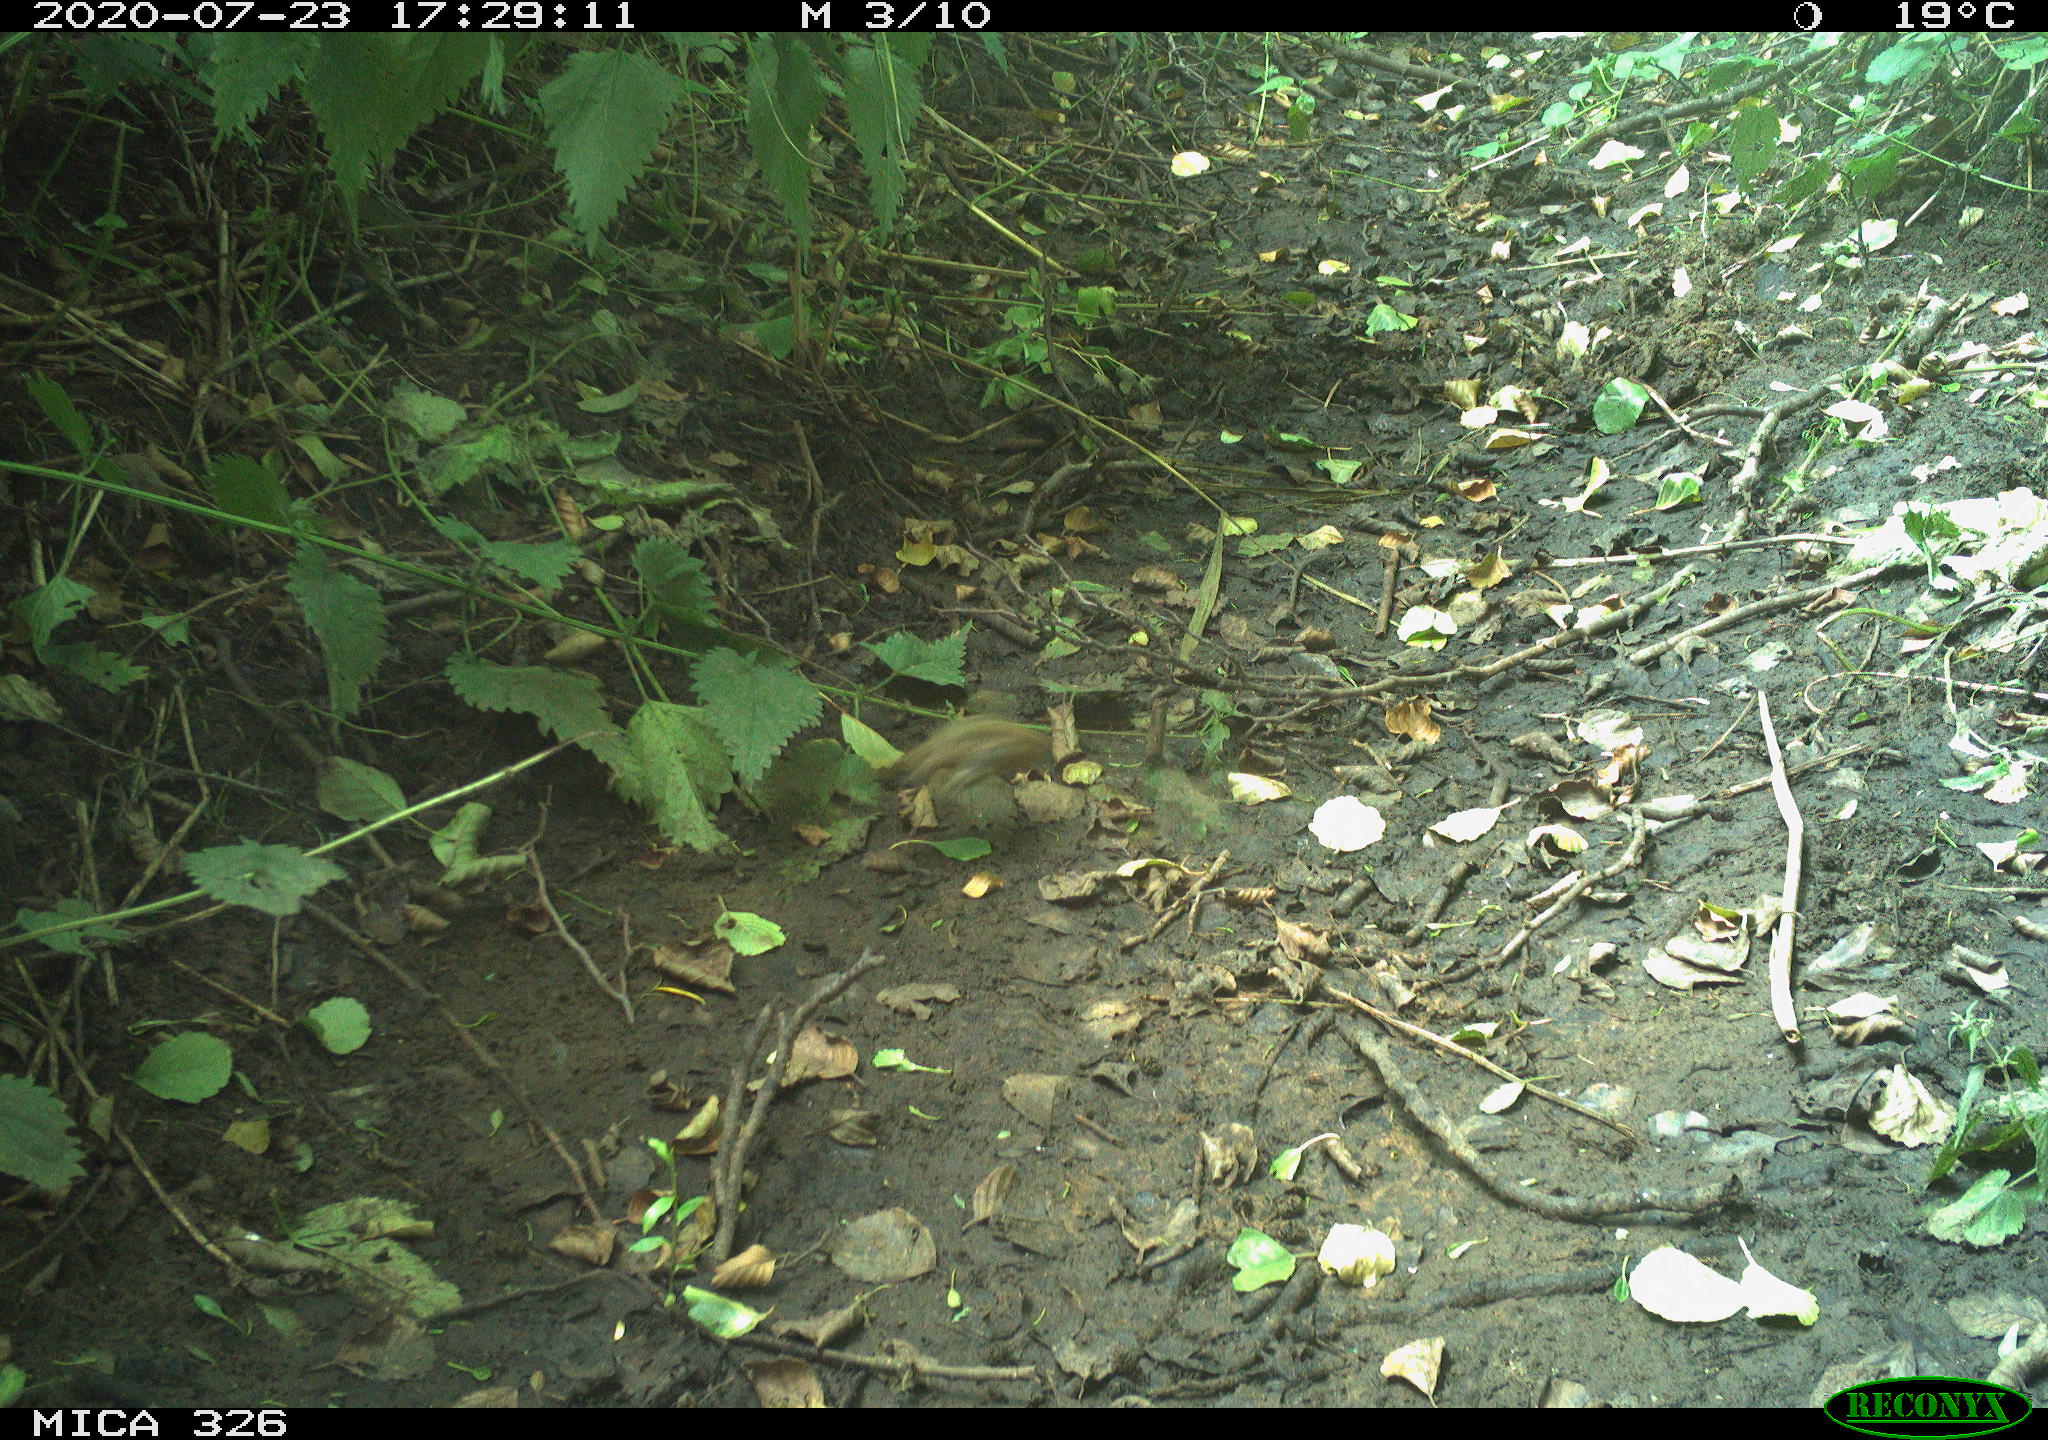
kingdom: Animalia
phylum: Chordata
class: Aves
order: Passeriformes
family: Muscicapidae
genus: Erithacus
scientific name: Erithacus rubecula
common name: European robin
